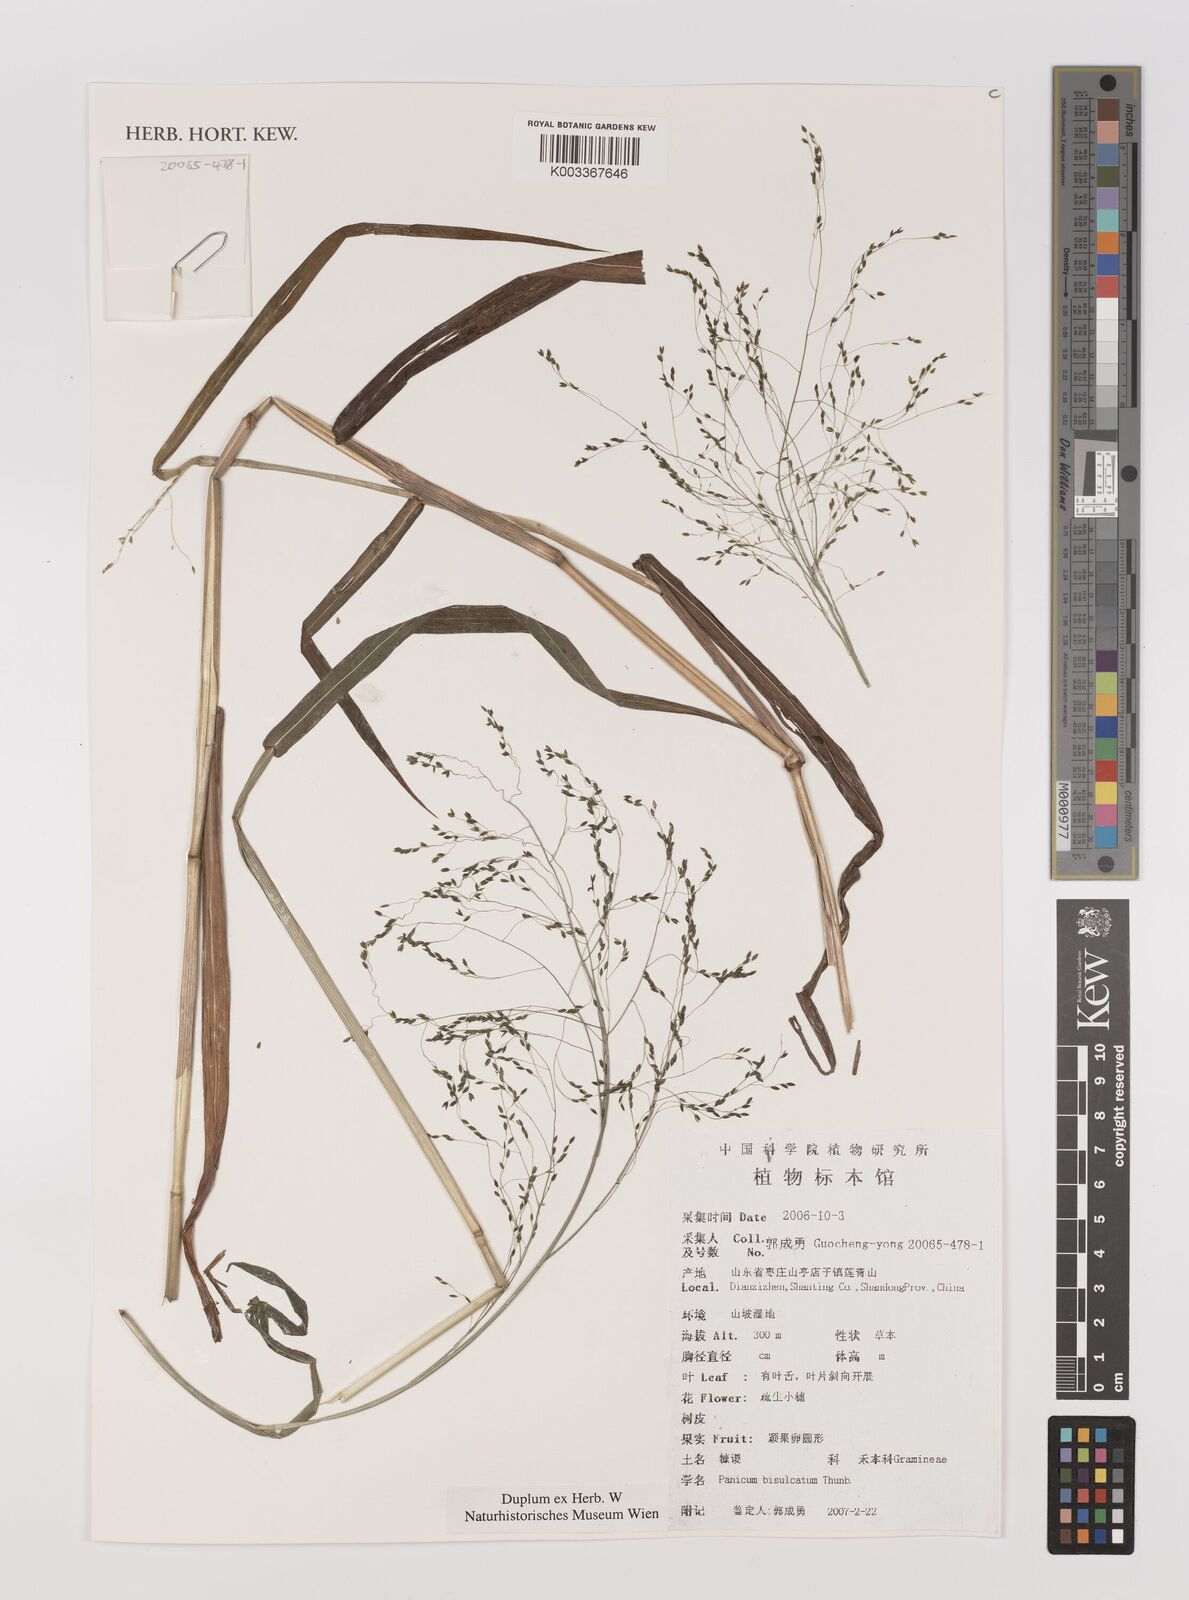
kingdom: Plantae
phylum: Tracheophyta
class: Liliopsida
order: Poales
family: Poaceae
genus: Panicum
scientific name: Panicum bisulcatum
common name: Japanese panicgrass
